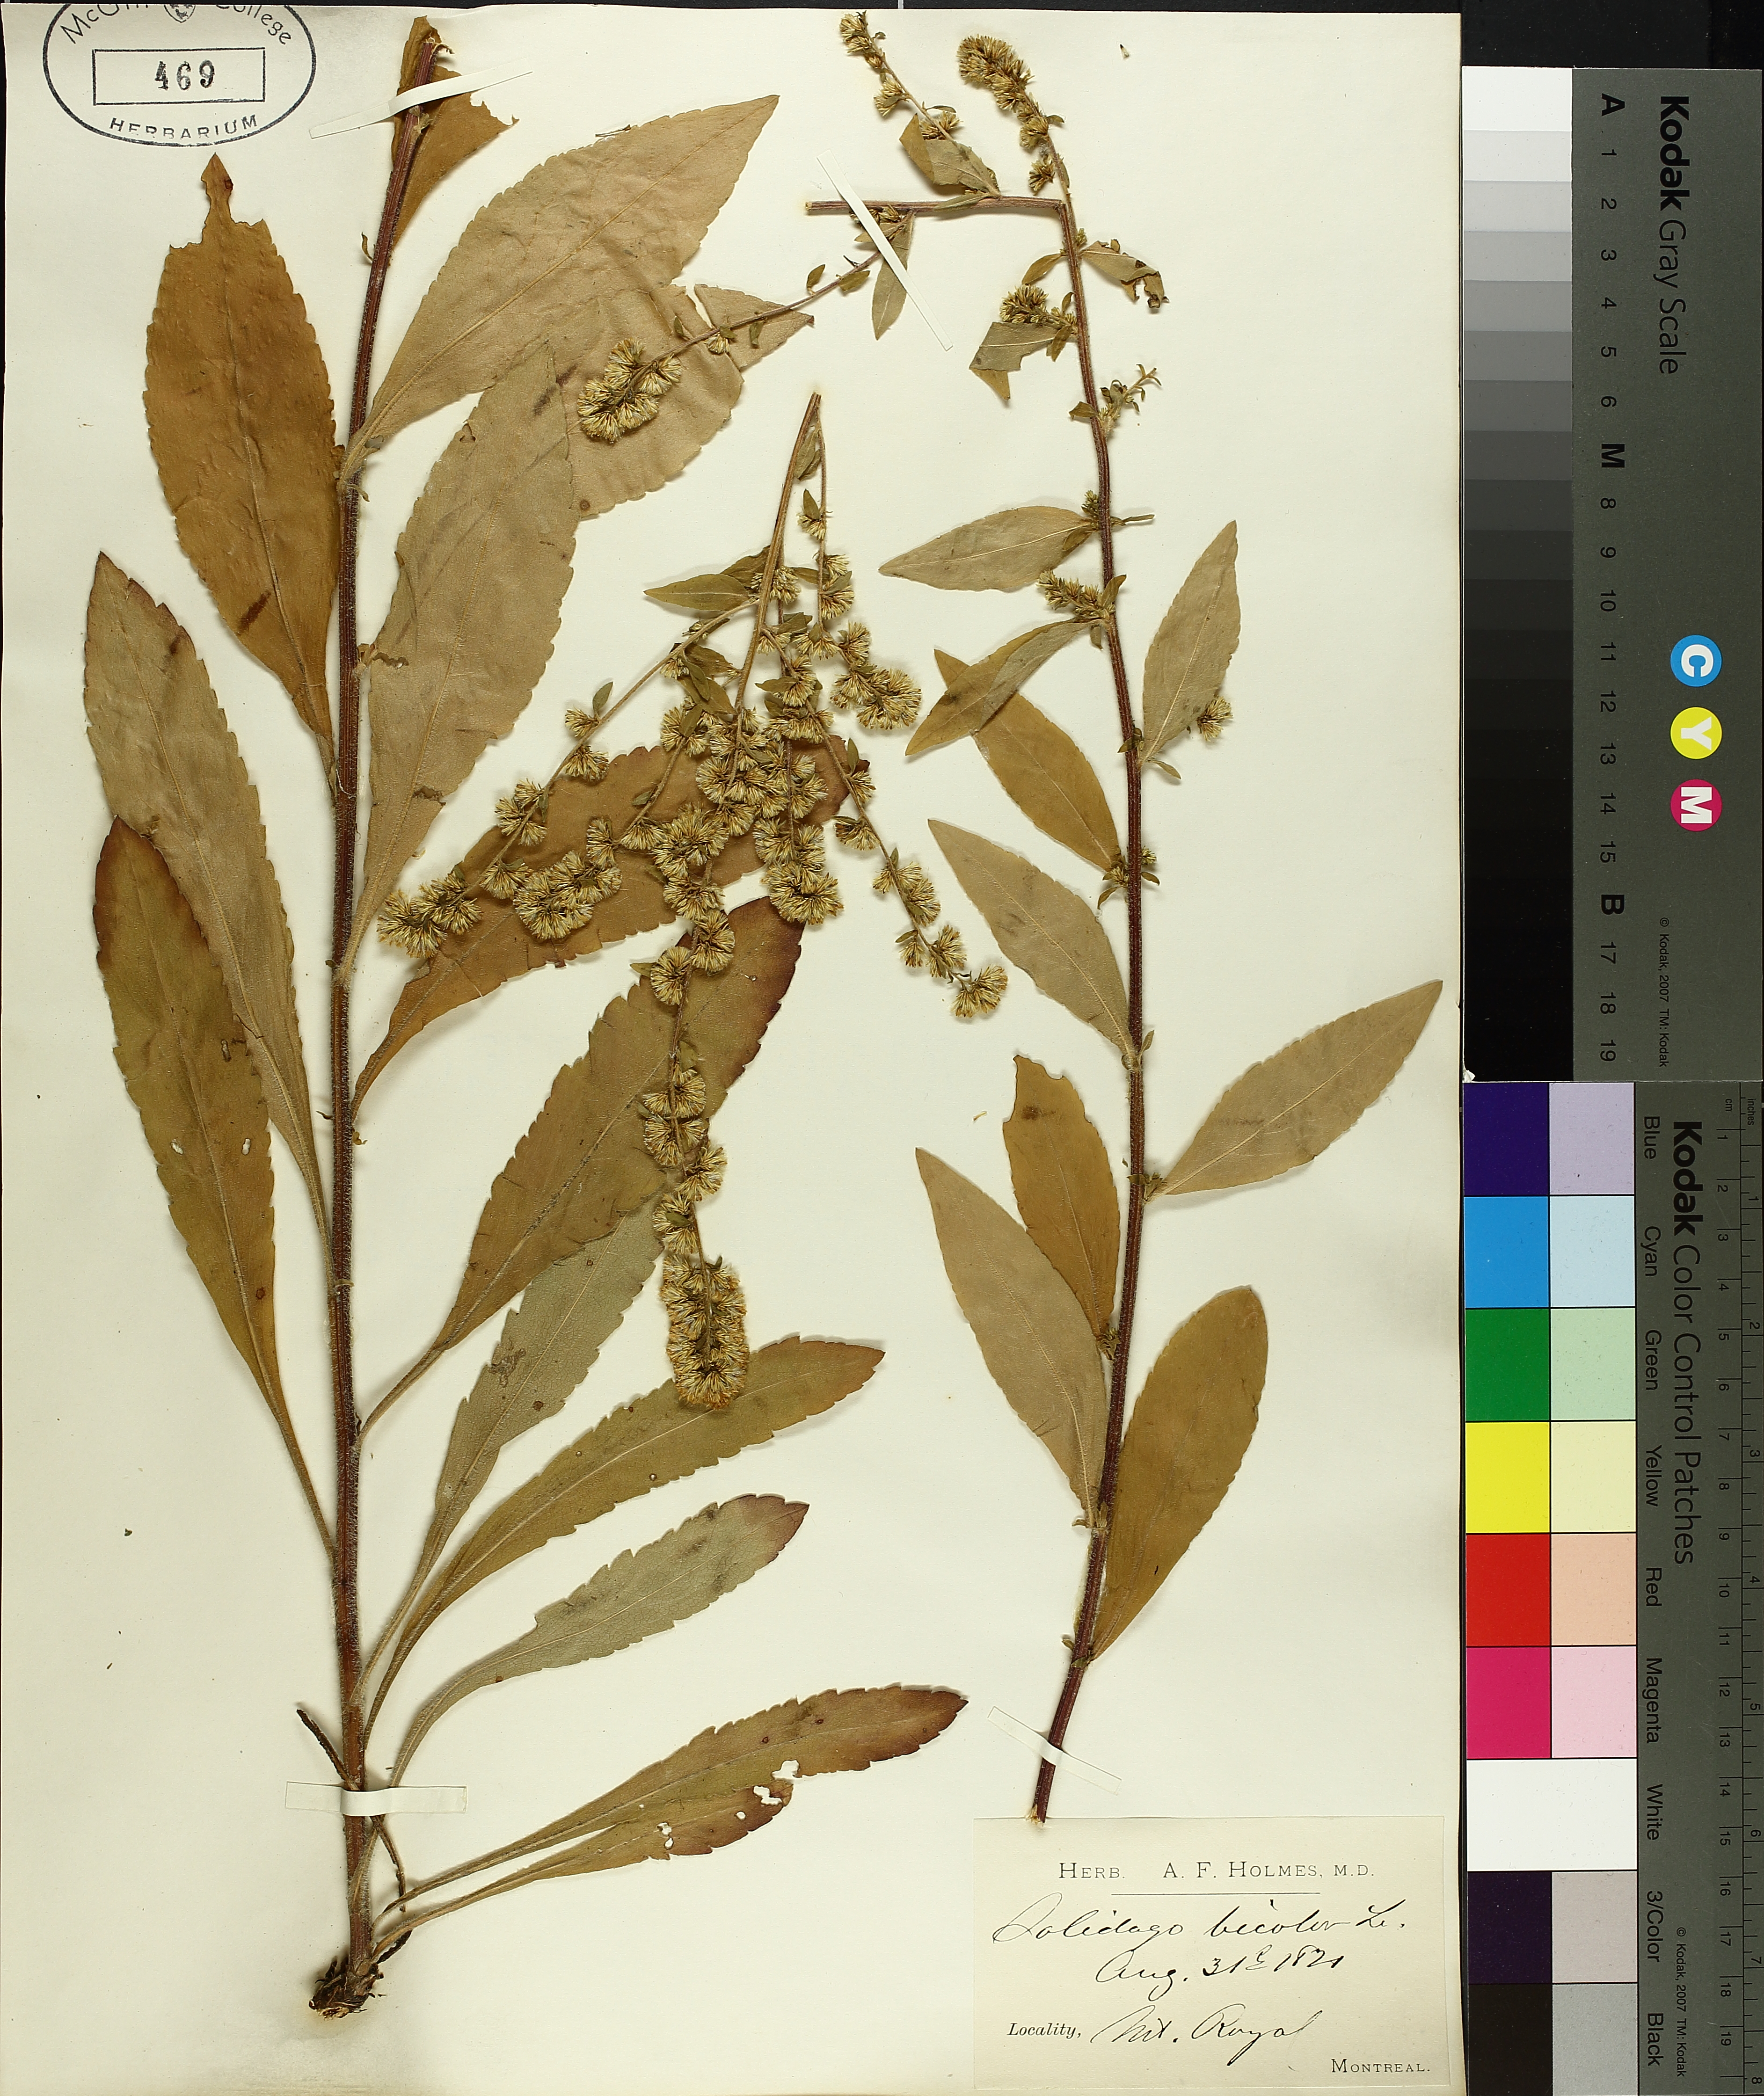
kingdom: Plantae
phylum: Tracheophyta
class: Magnoliopsida
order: Asterales
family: Asteraceae
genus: Solidago
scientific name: Solidago bicolor
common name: Silverrod
